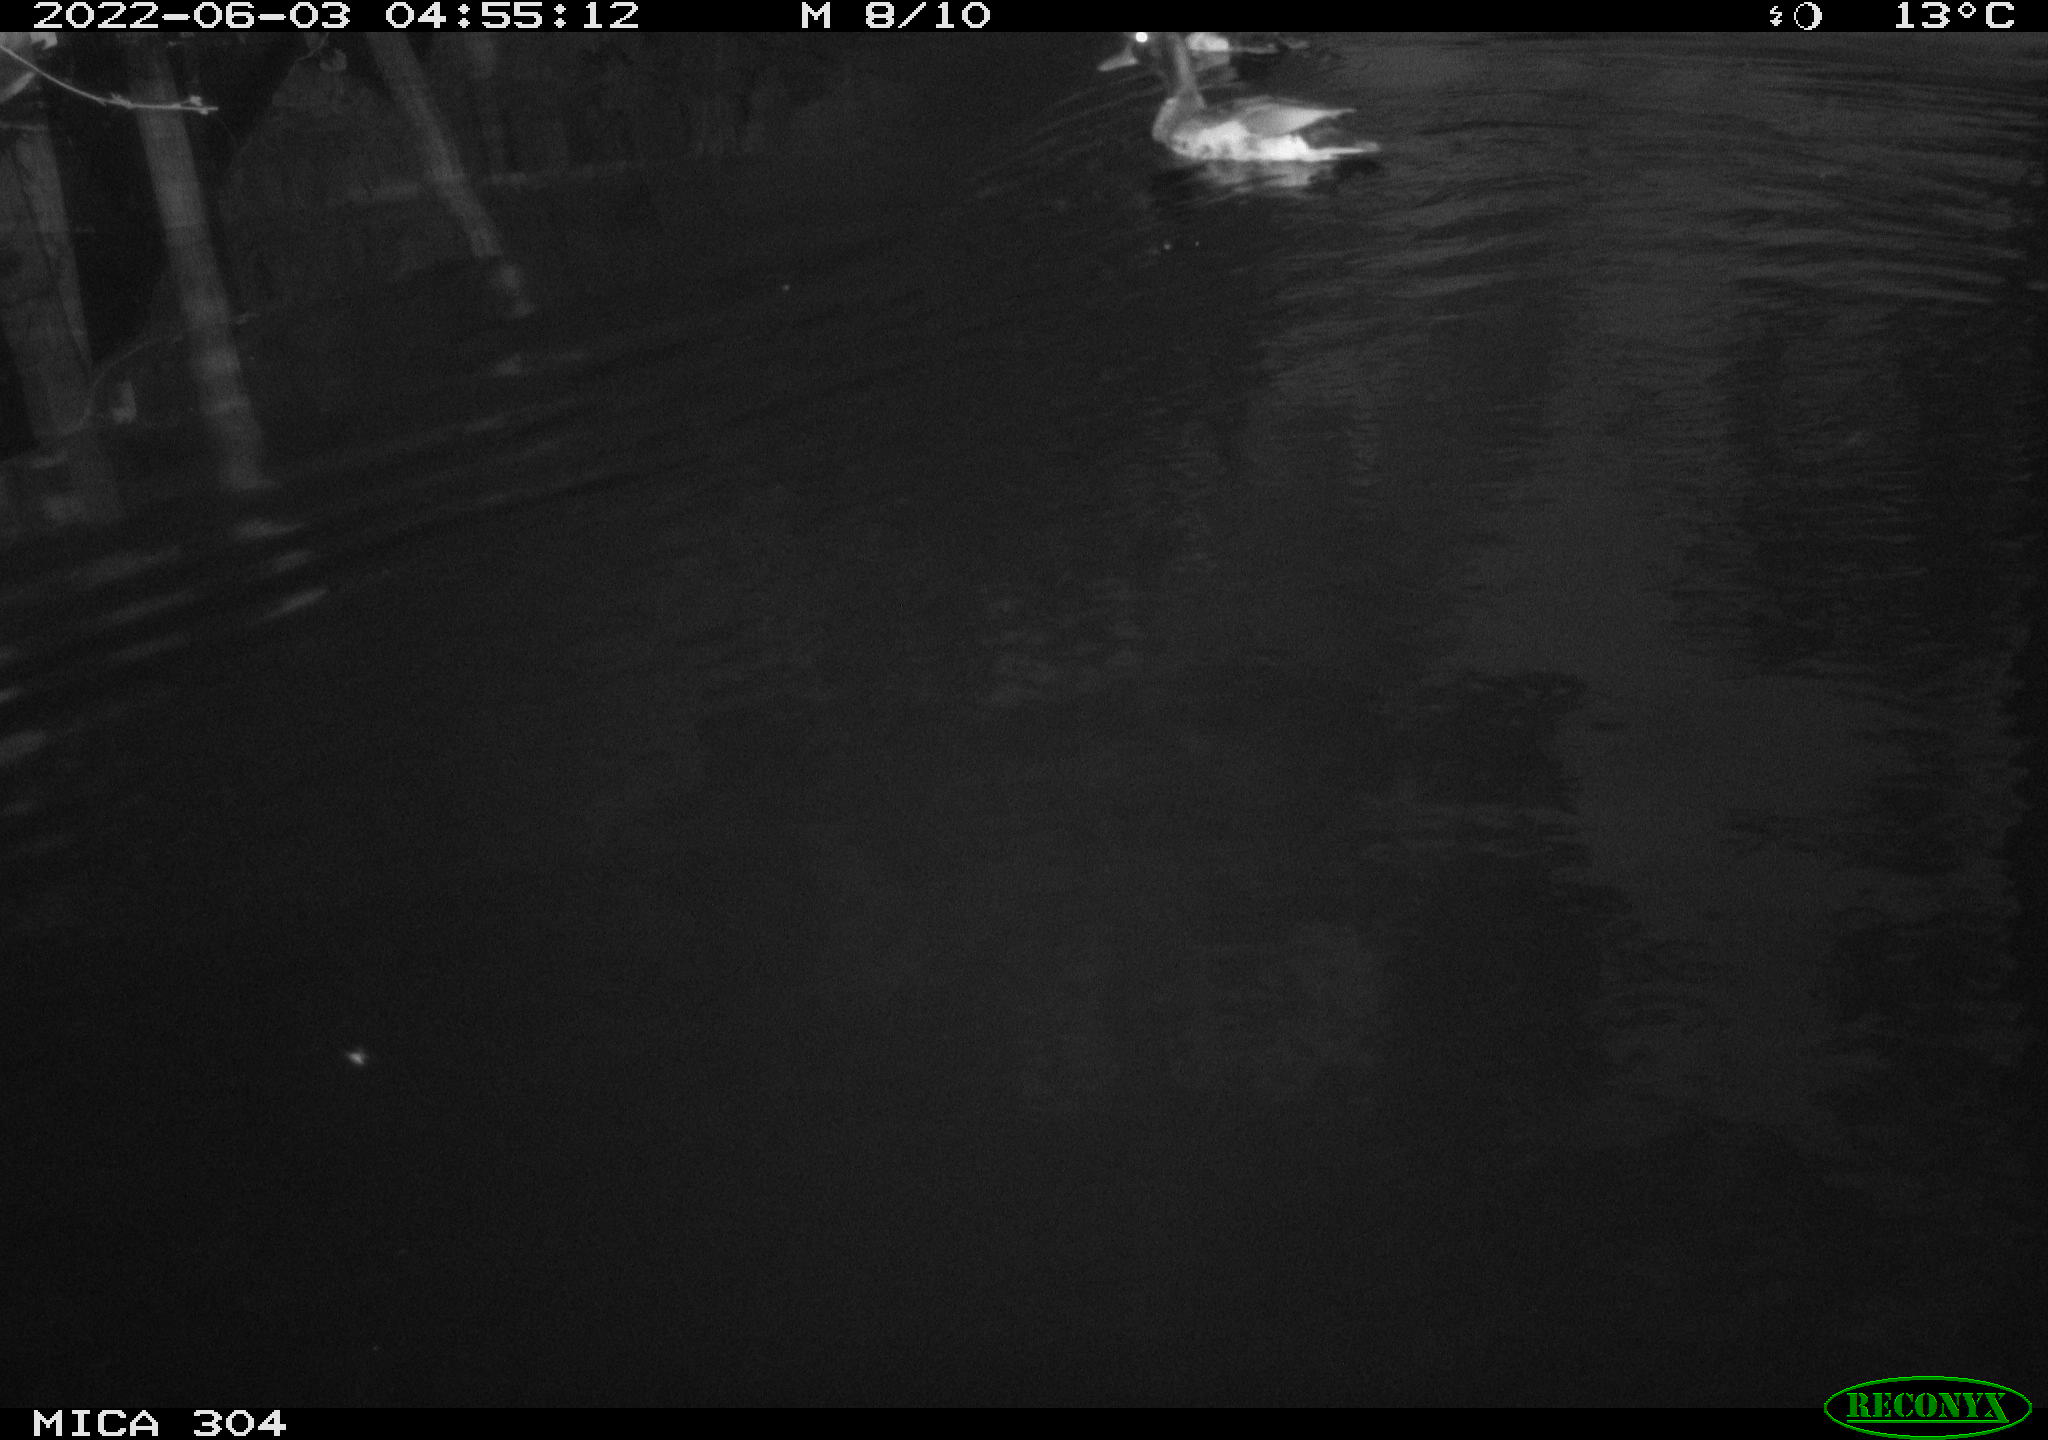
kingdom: Animalia
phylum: Chordata
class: Aves
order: Anseriformes
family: Anatidae
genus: Anas
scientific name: Anas platyrhynchos
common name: Mallard
